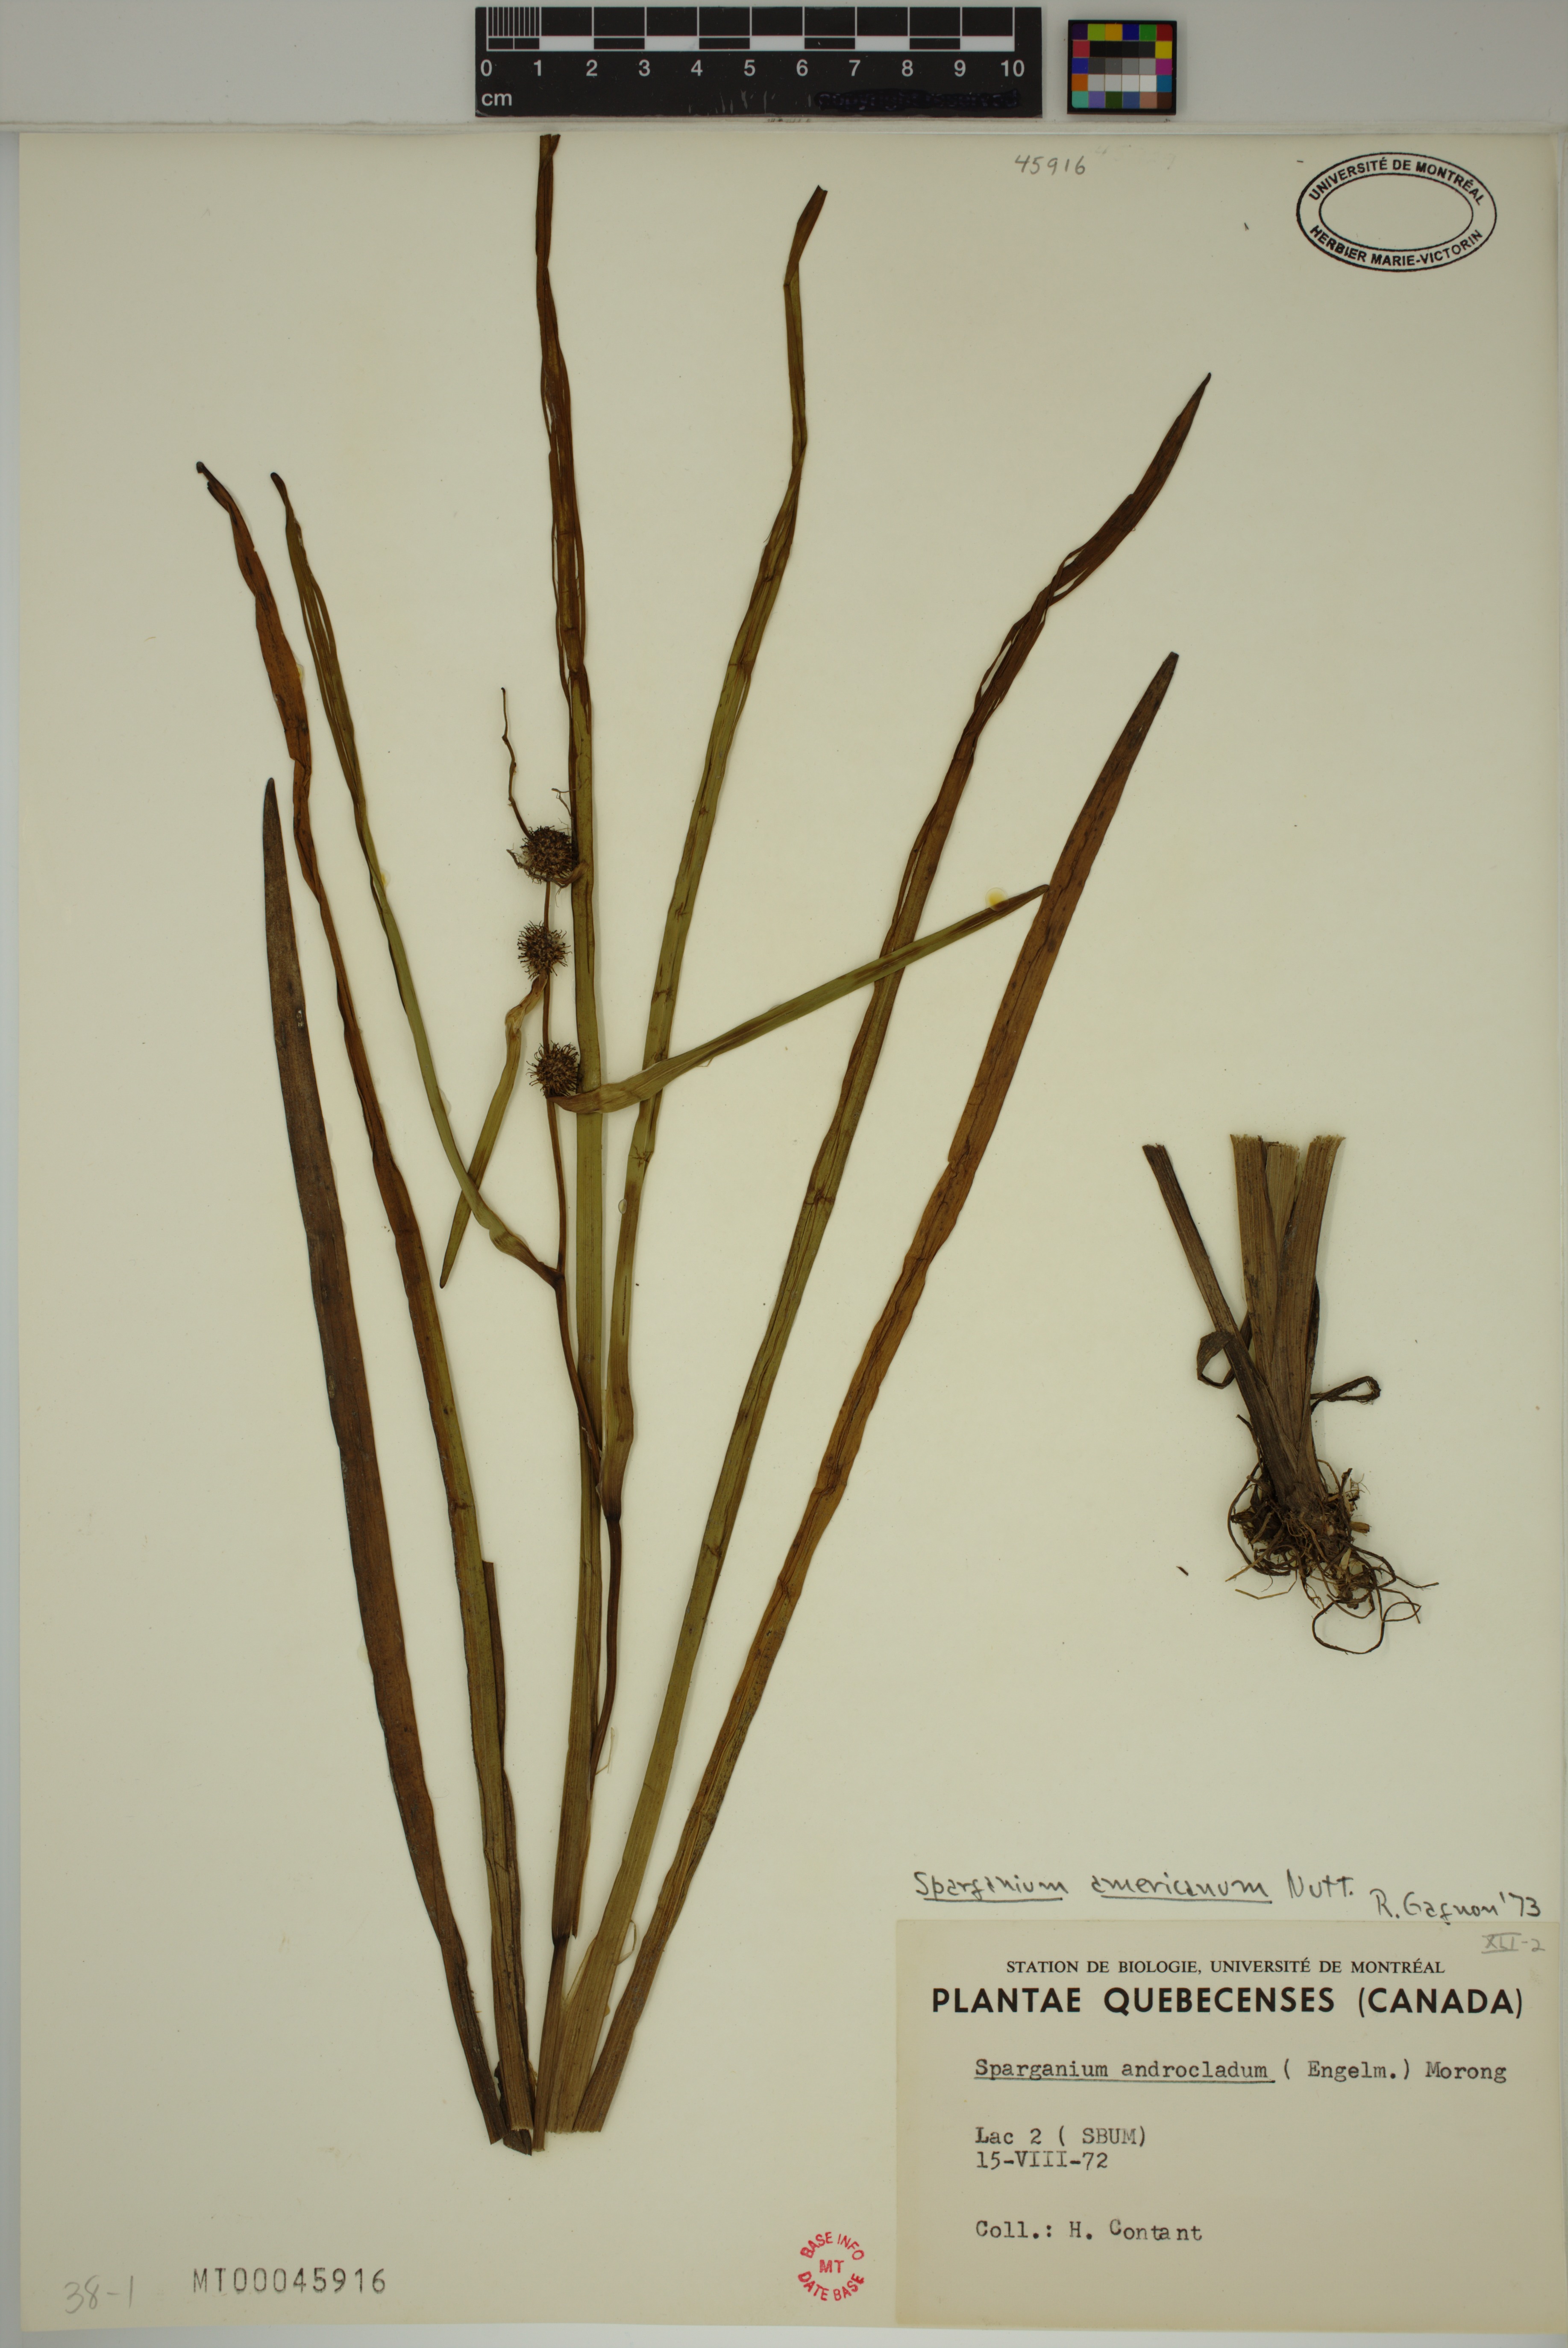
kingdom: Plantae
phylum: Tracheophyta
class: Liliopsida
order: Poales
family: Typhaceae
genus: Sparganium
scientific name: Sparganium americanum
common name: American burreed
